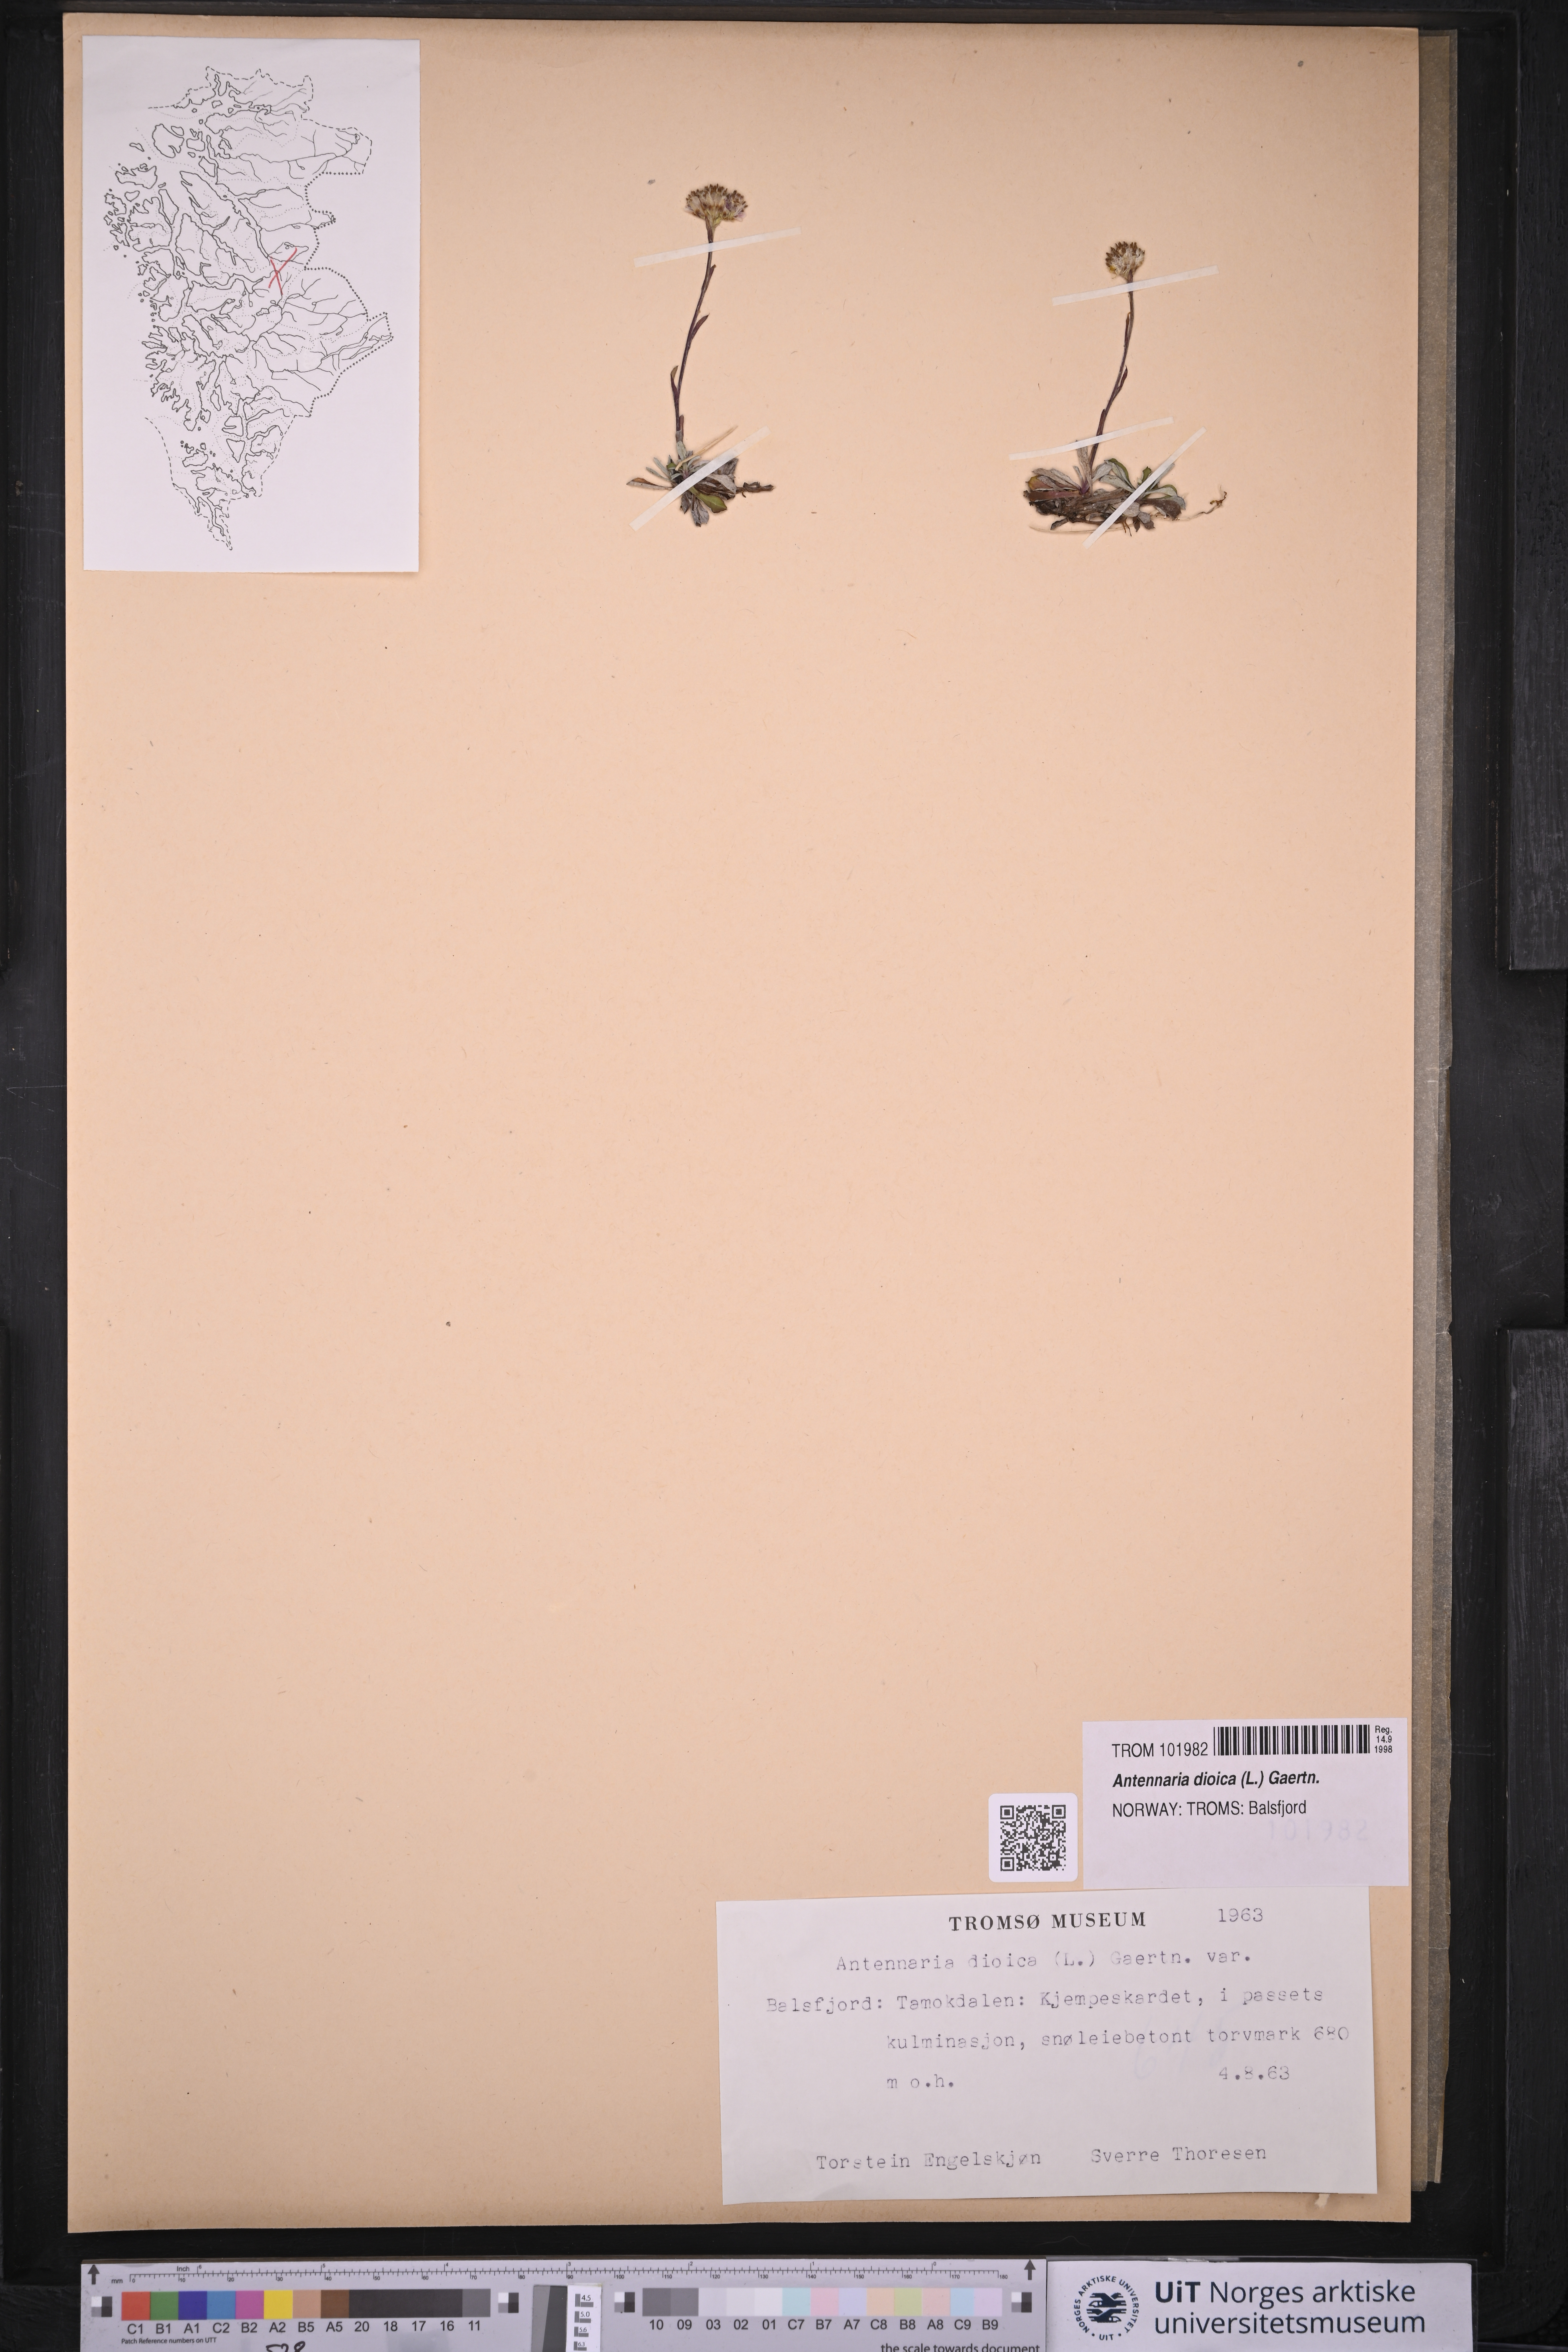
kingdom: Plantae
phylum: Tracheophyta
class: Magnoliopsida
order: Asterales
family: Asteraceae
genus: Antennaria
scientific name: Antennaria dioica
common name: Mountain everlasting
